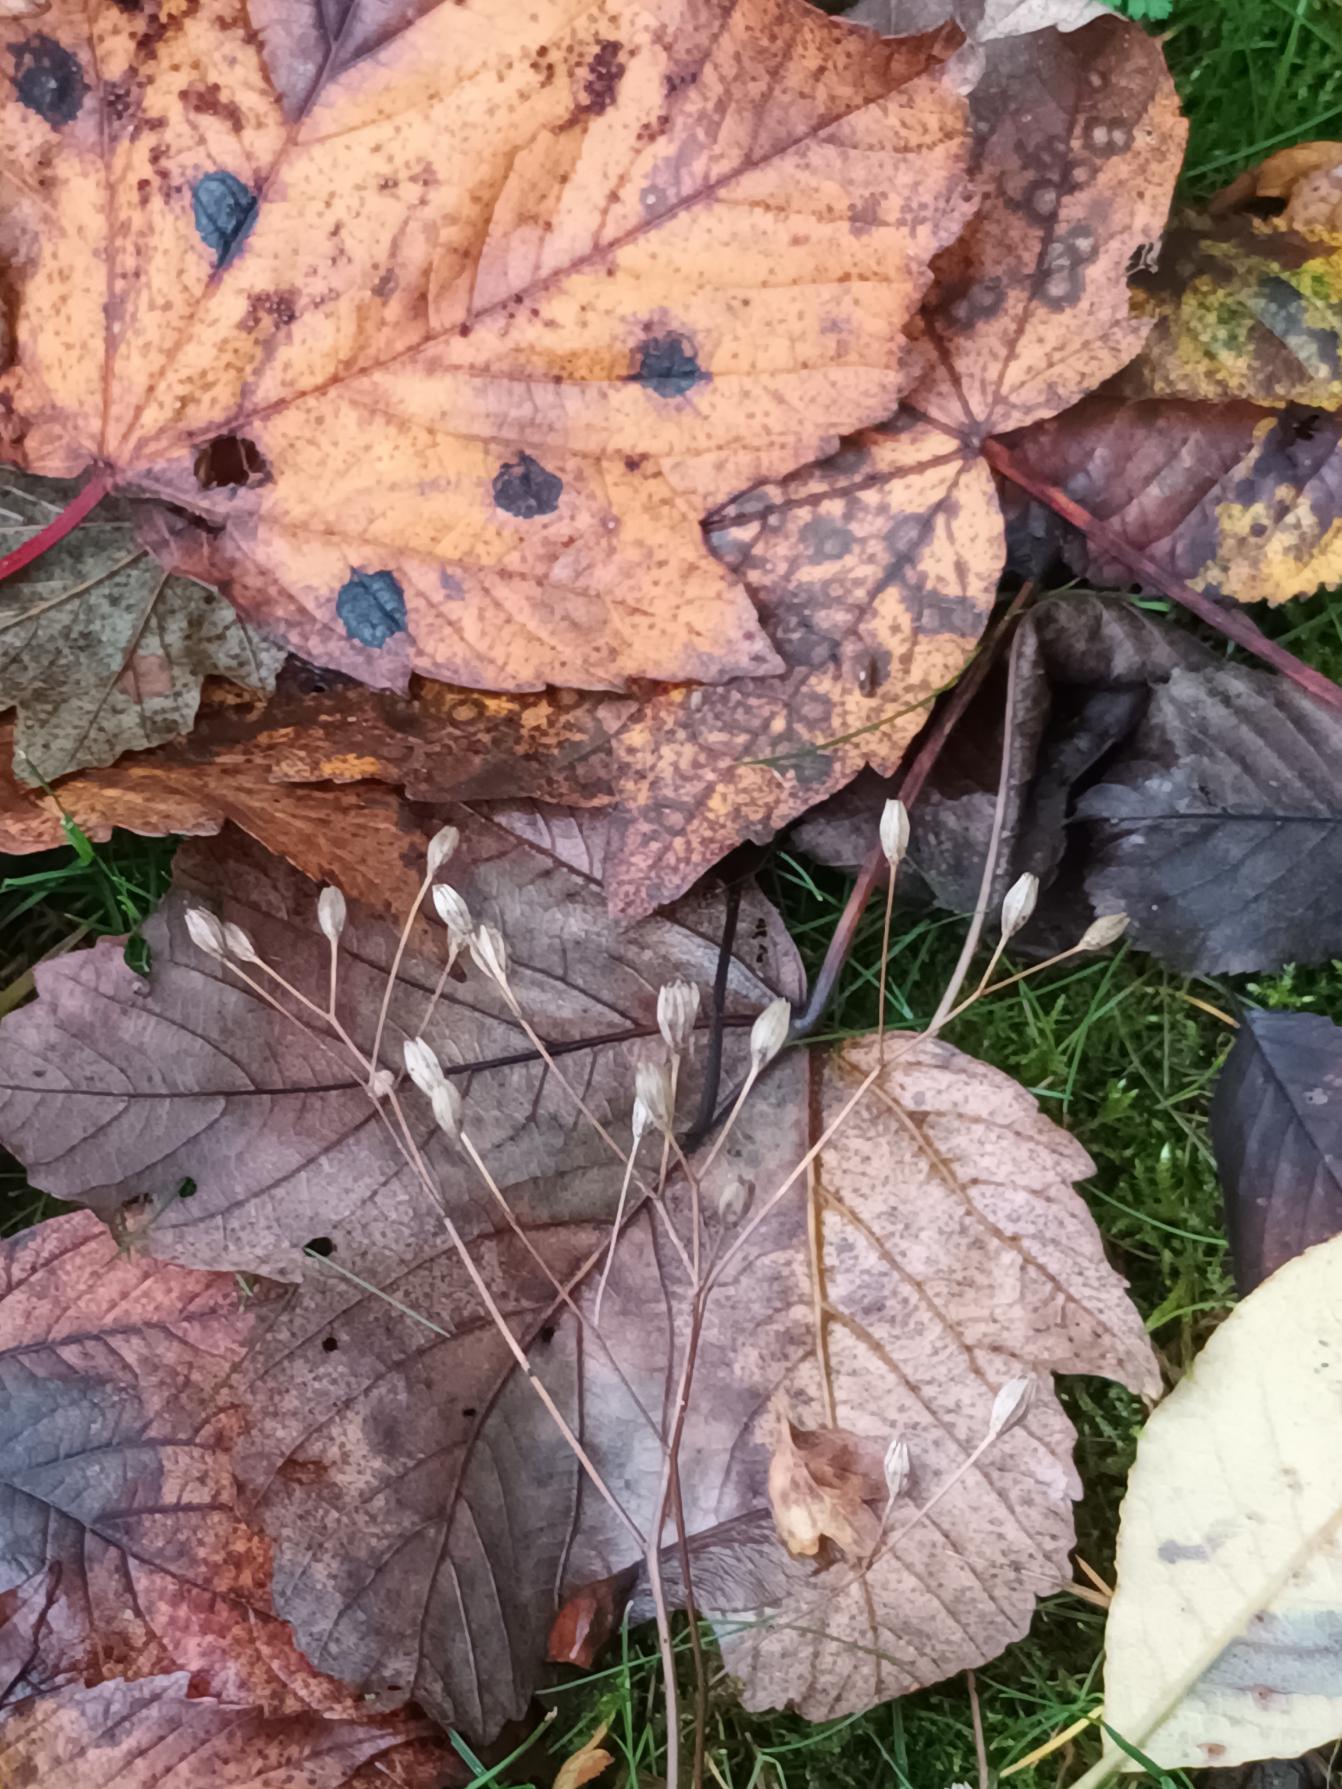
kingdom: Plantae
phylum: Tracheophyta
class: Magnoliopsida
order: Asterales
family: Asteraceae
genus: Lapsana
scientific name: Lapsana communis
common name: Haremad
